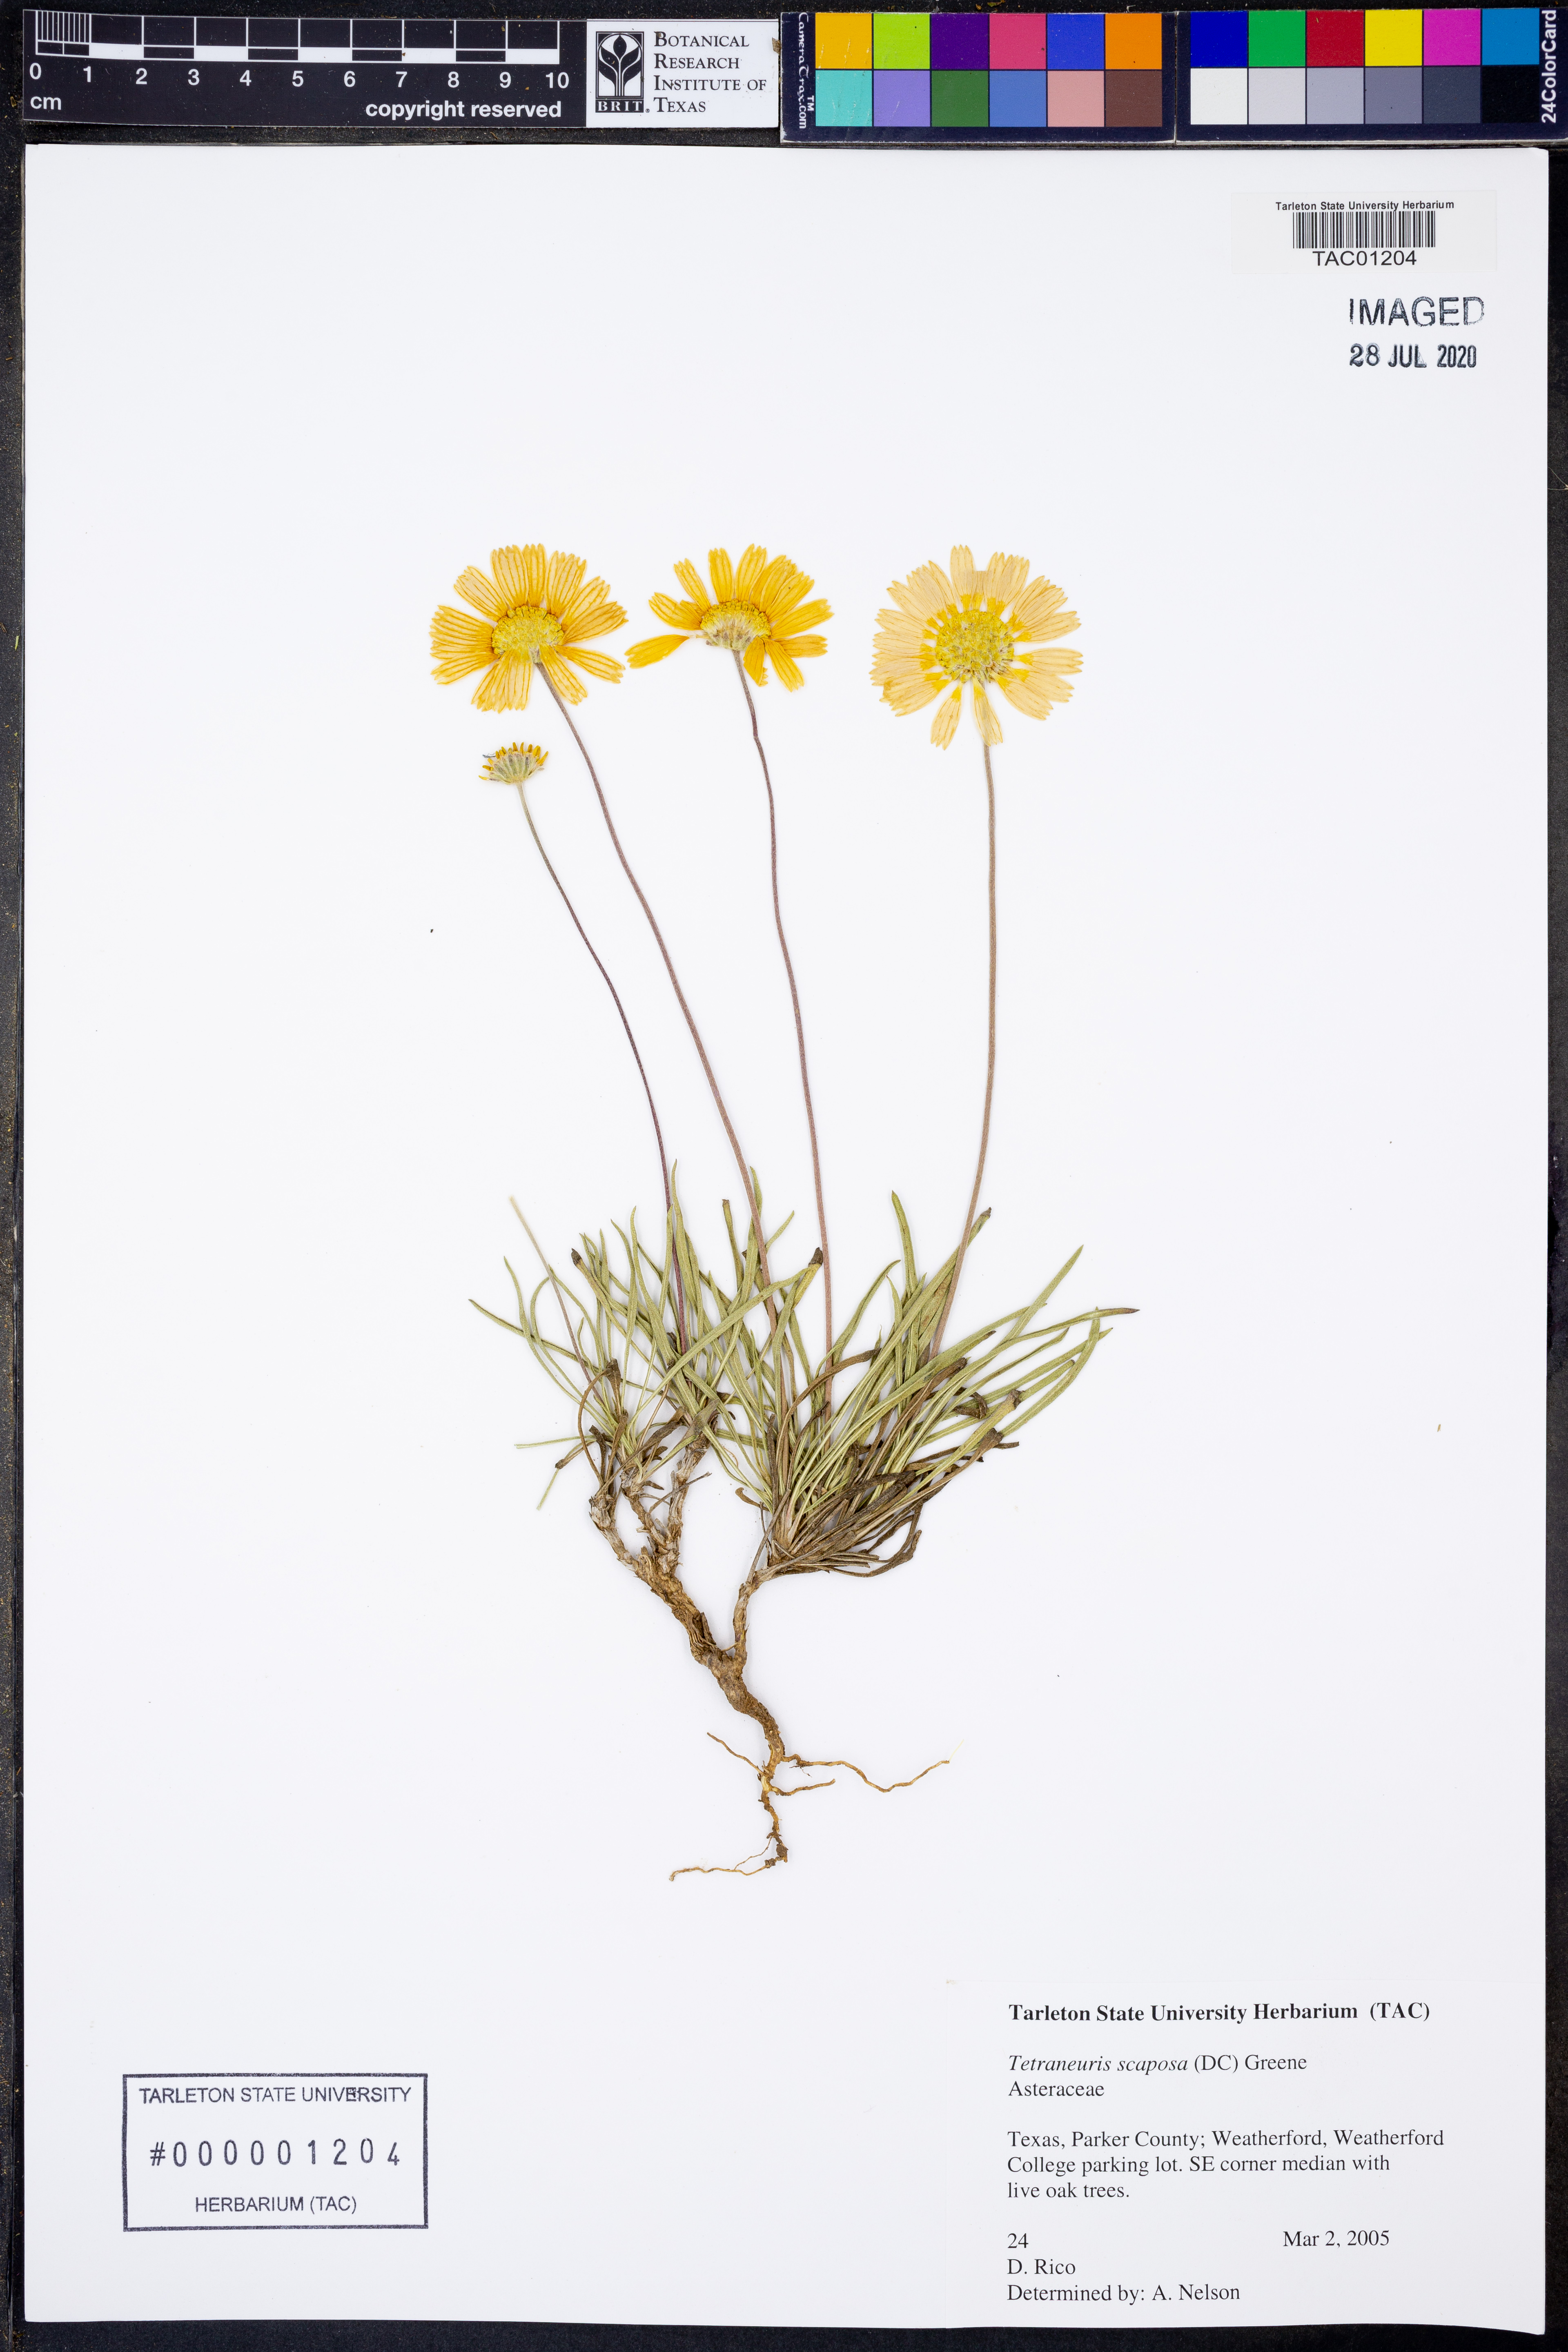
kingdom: Plantae
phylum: Tracheophyta
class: Magnoliopsida
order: Asterales
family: Asteraceae
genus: Tetraneuris
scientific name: Tetraneuris scaposa
